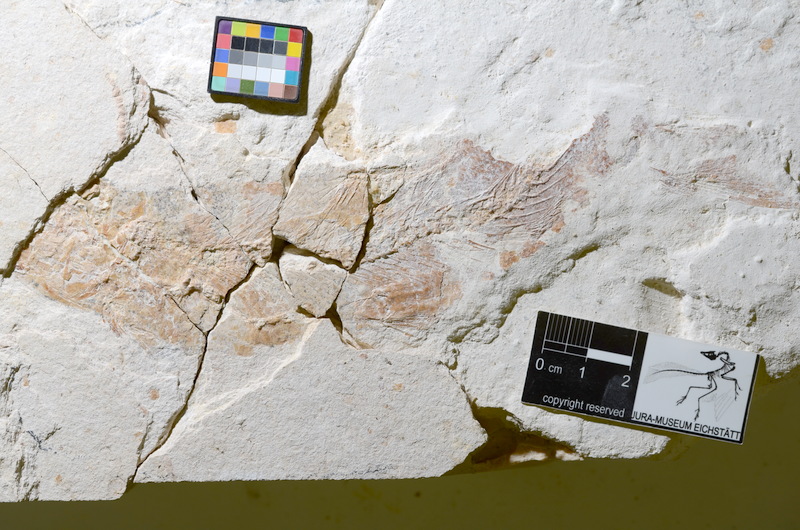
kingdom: Animalia
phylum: Chordata
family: Ascalaboidae
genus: Tharsis
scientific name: Tharsis dubius
